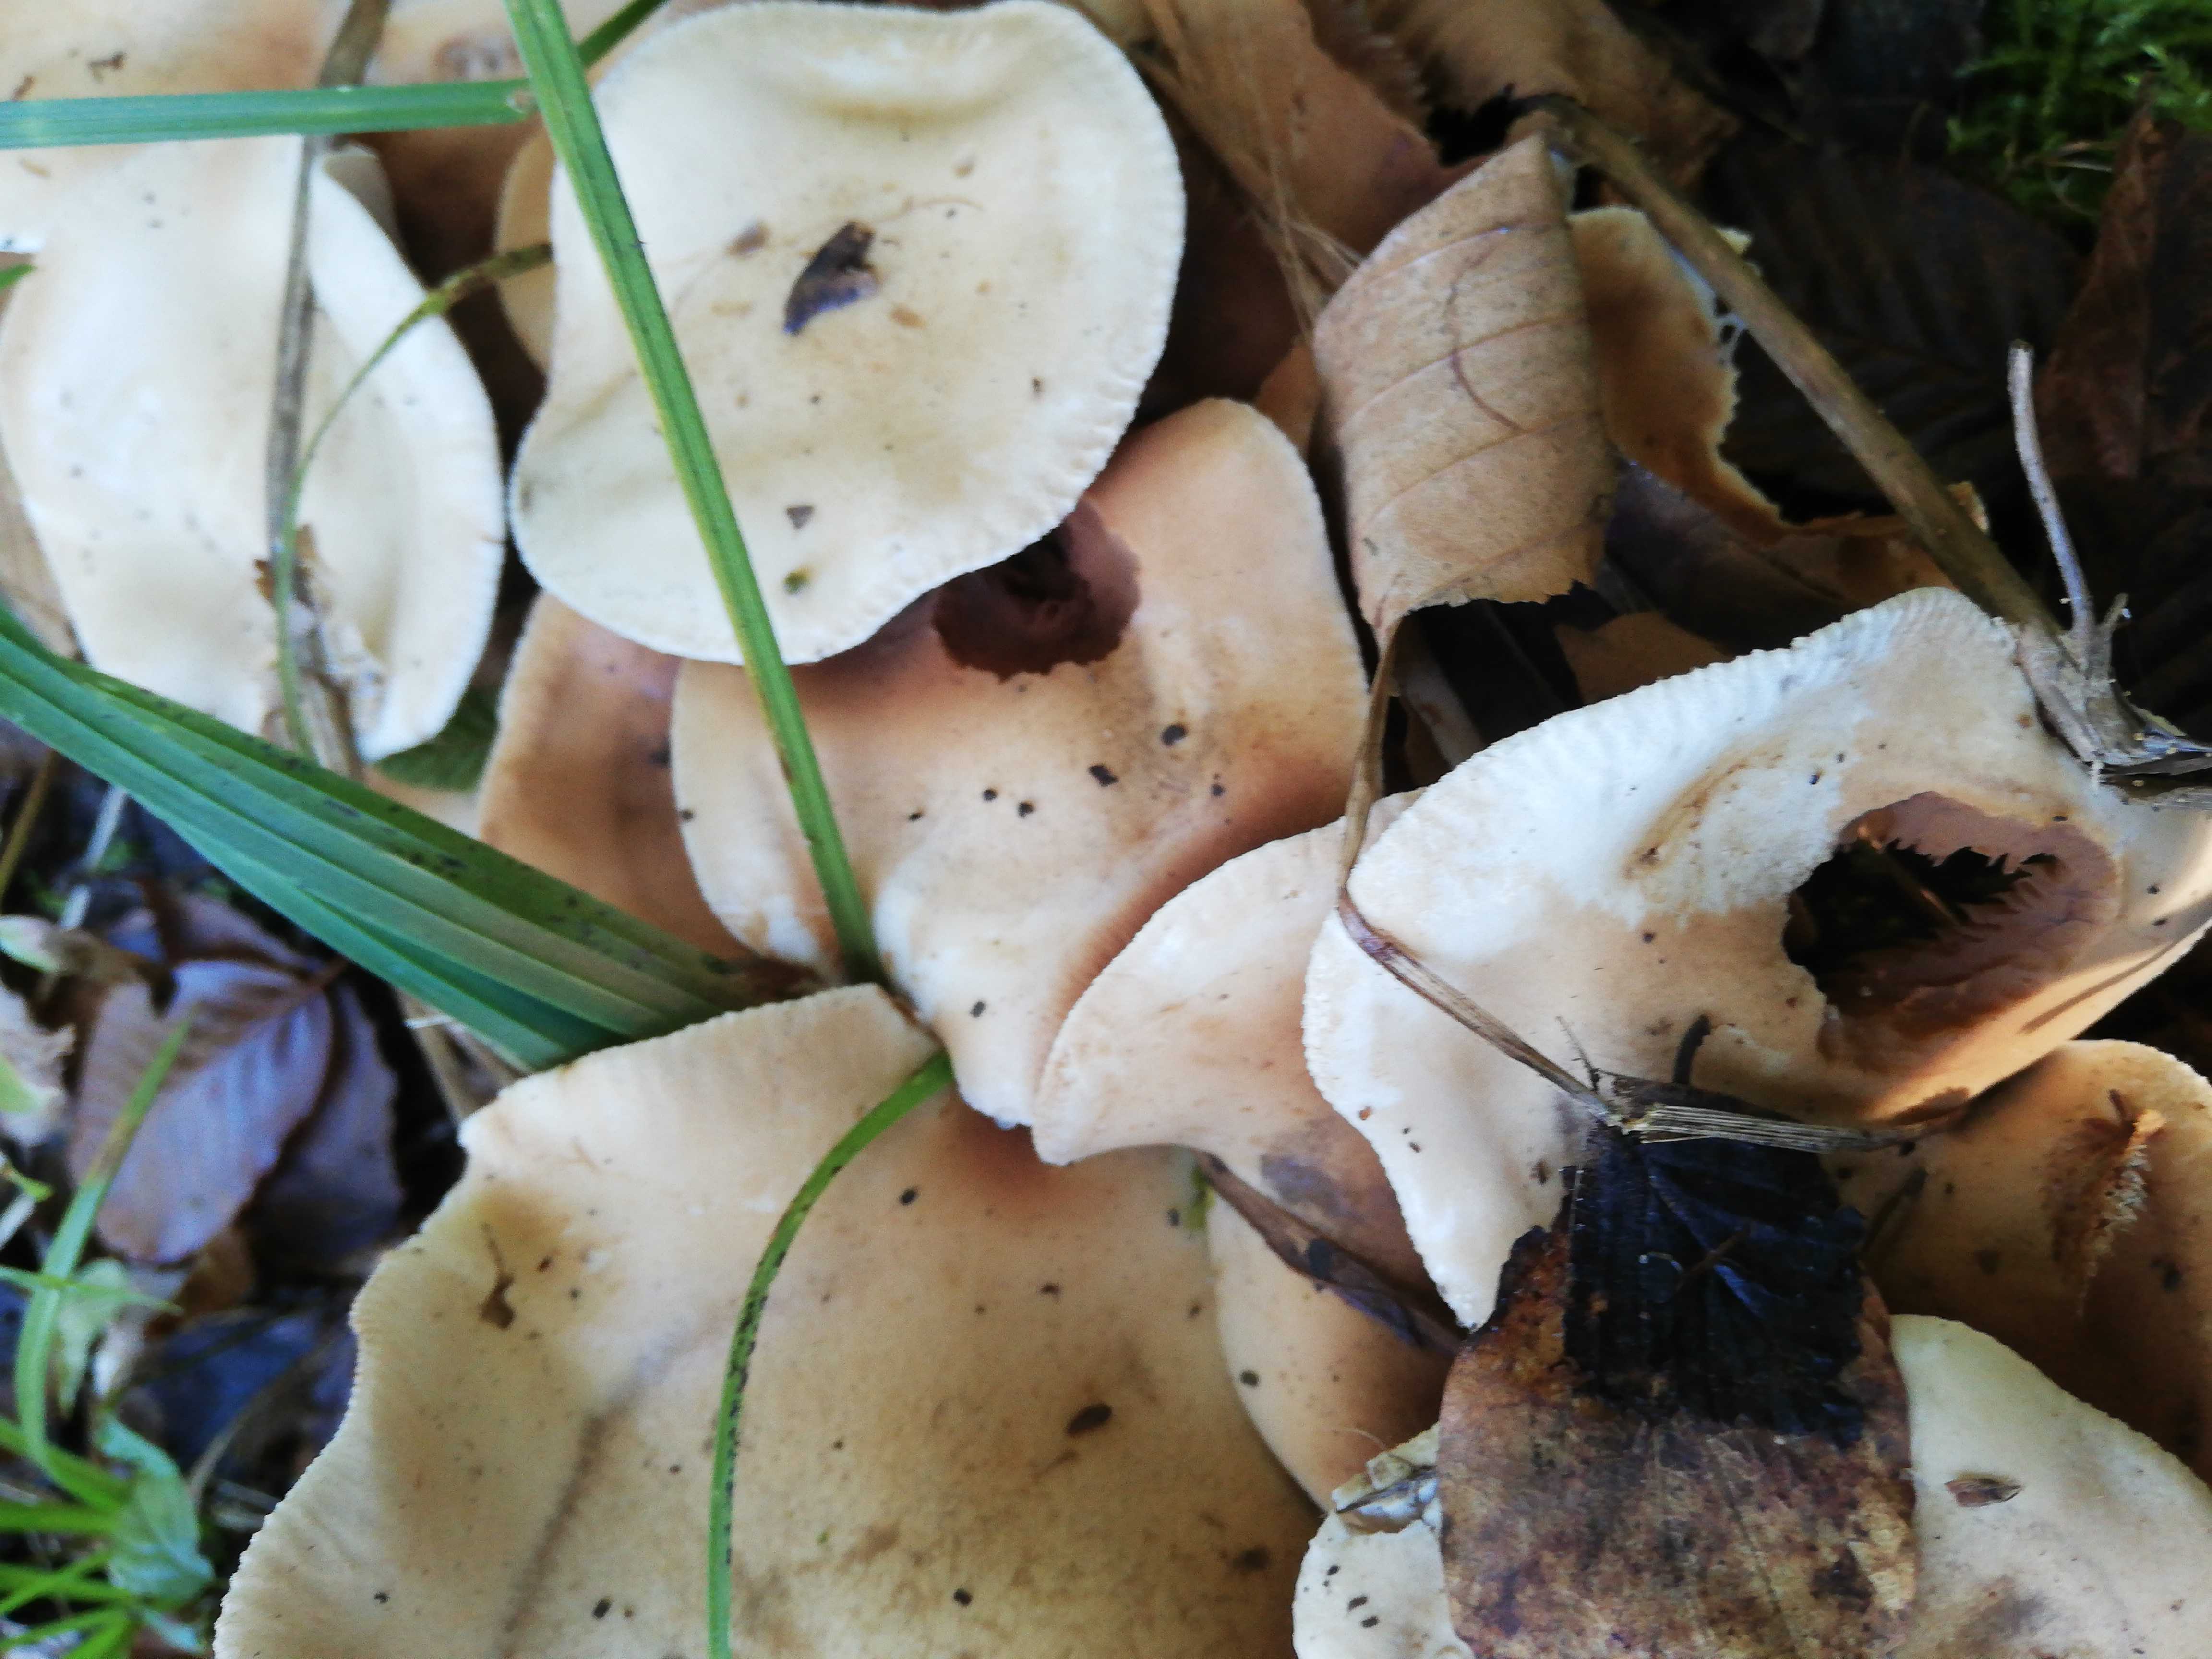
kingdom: Fungi
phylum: Basidiomycota
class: Agaricomycetes
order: Agaricales
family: Hymenogastraceae
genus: Hebeloma
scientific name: Hebeloma
